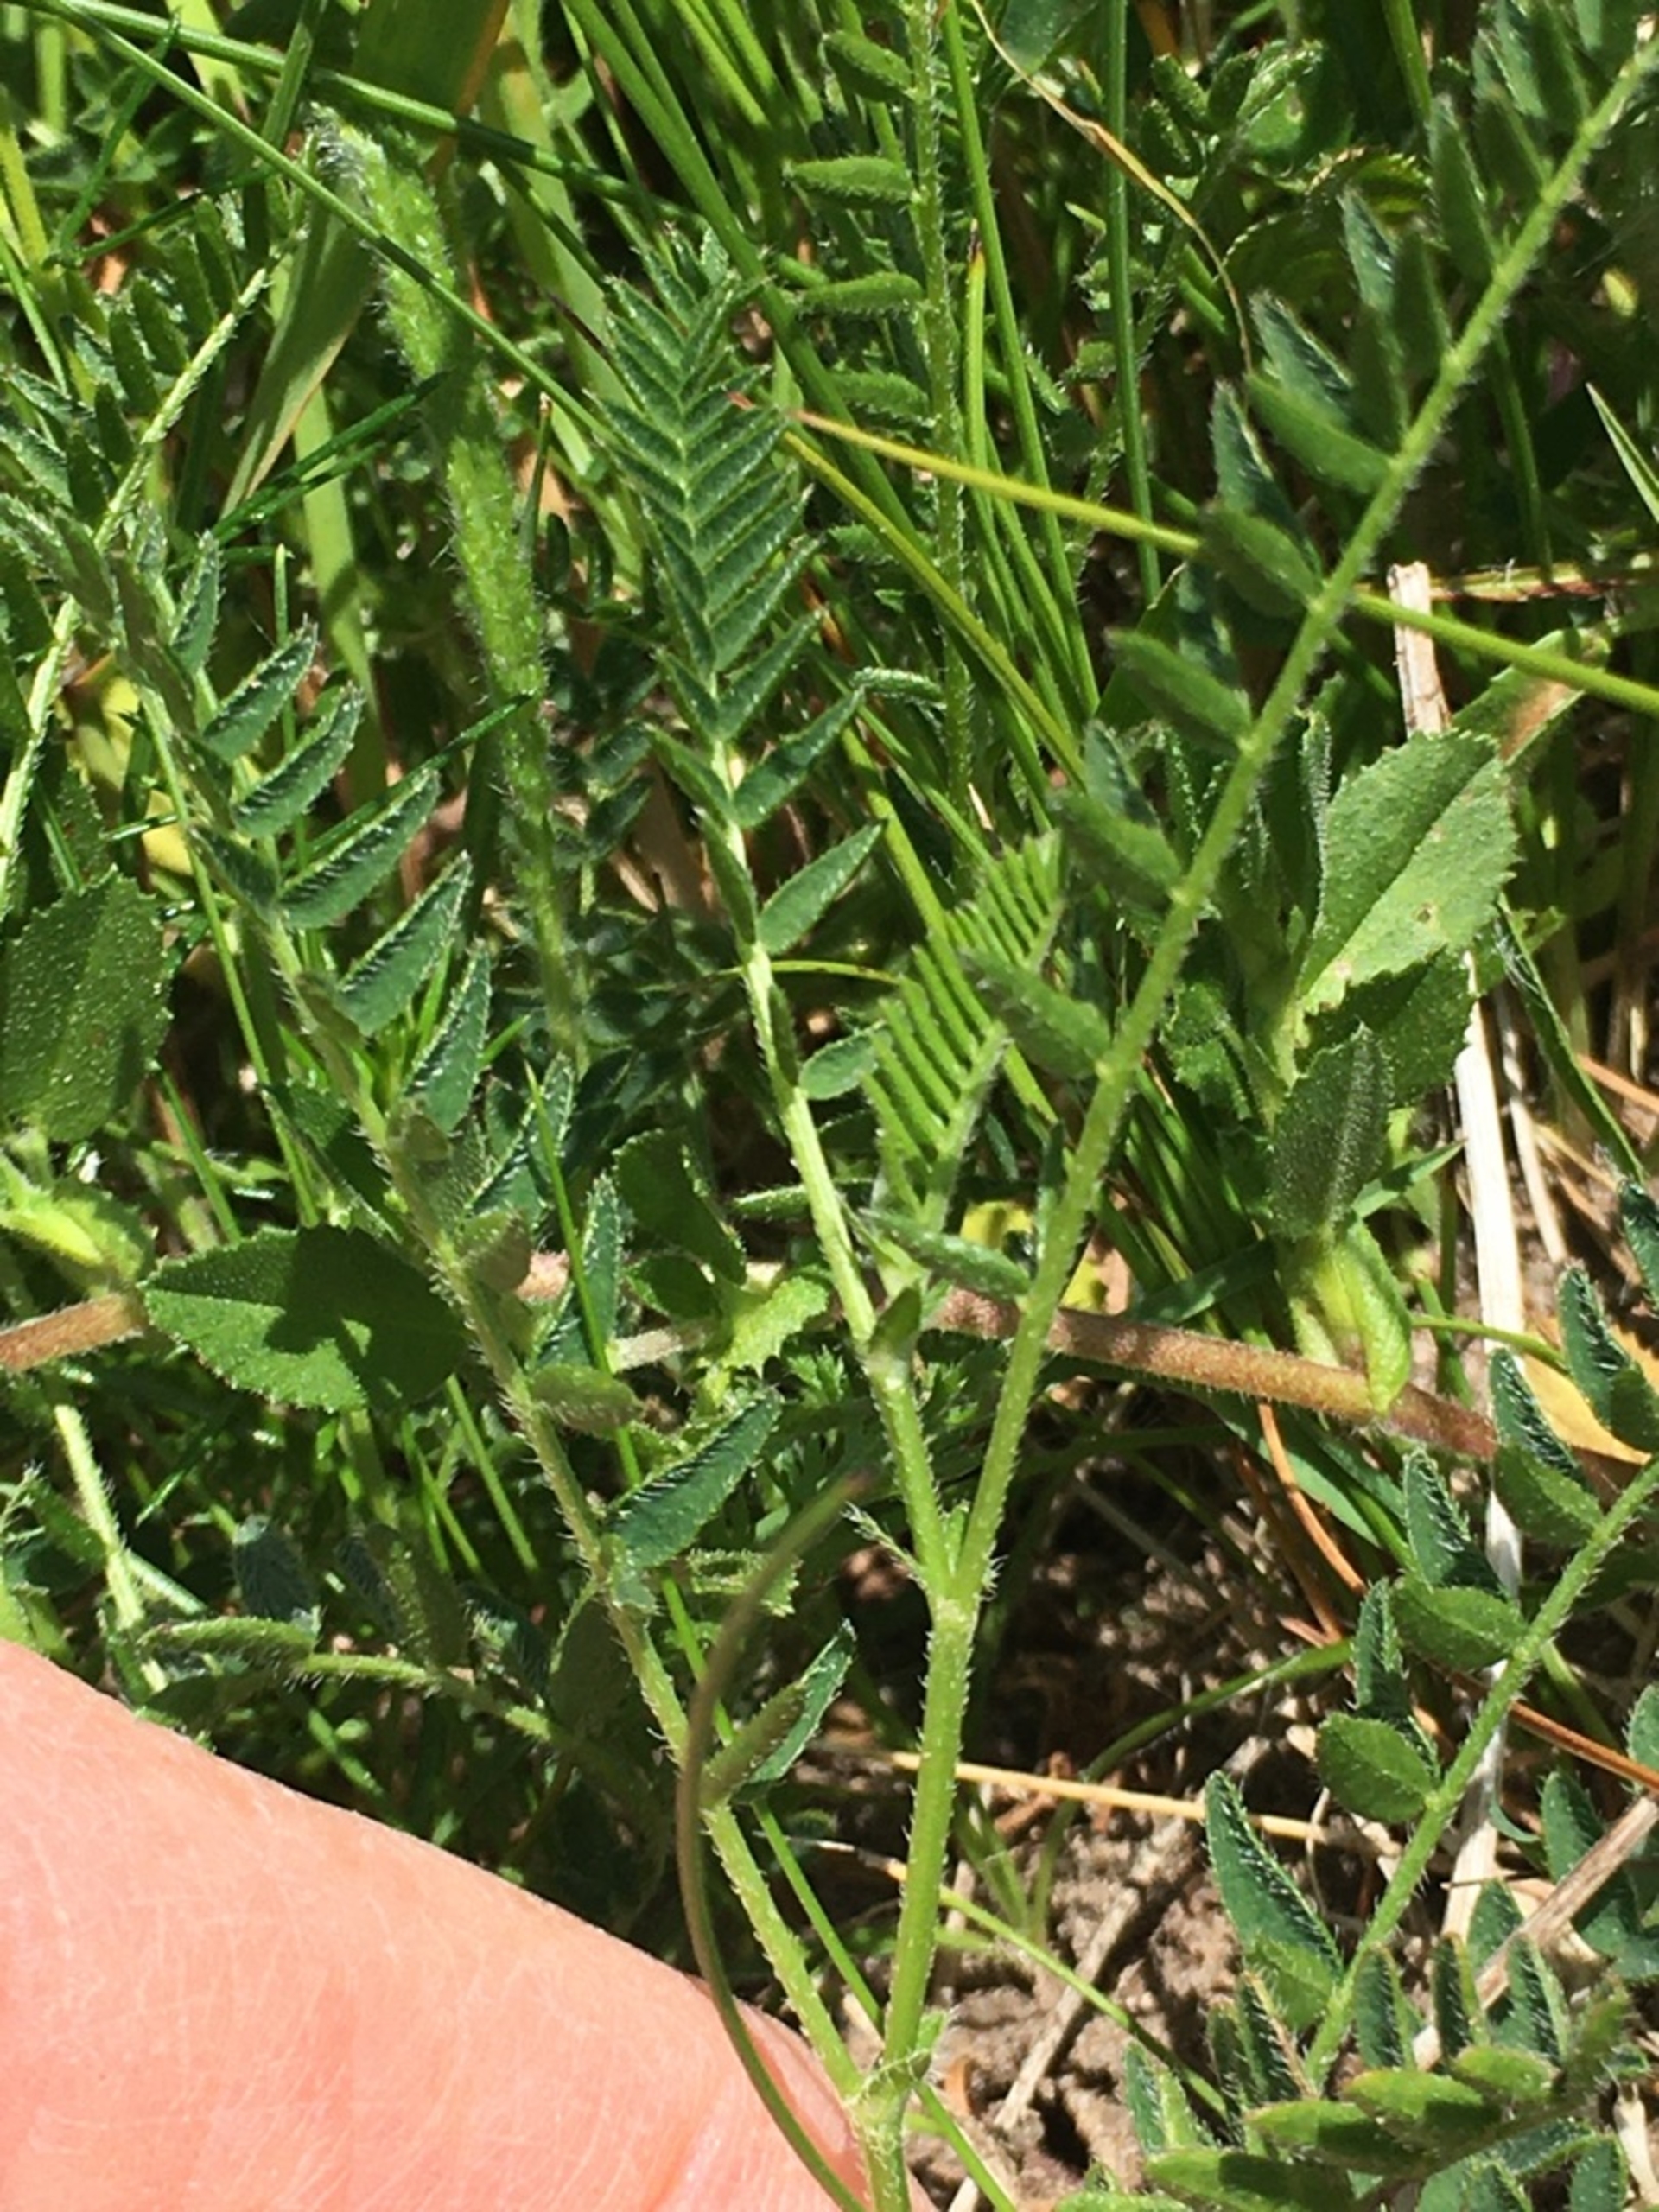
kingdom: Plantae
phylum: Tracheophyta
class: Magnoliopsida
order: Fabales
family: Fabaceae
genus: Astragalus
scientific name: Astragalus danicus
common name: Dansk astragel
